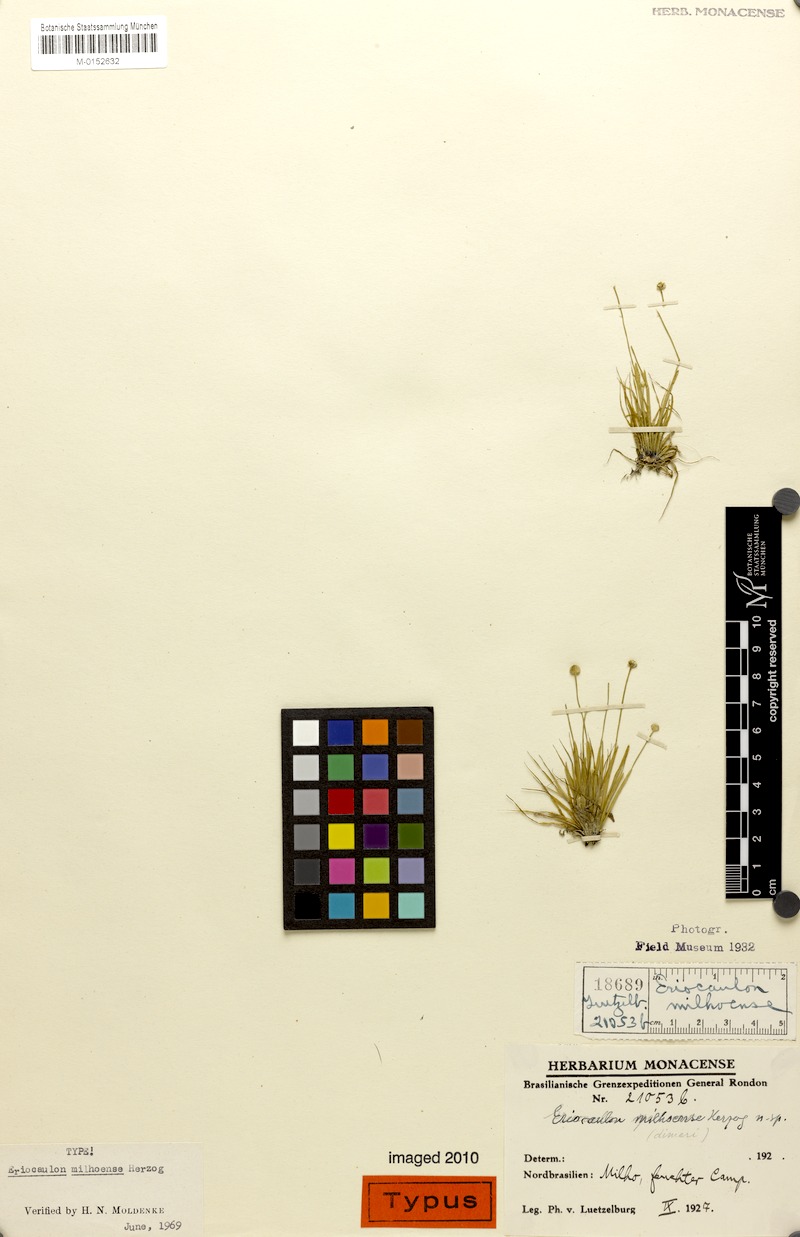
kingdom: Plantae
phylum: Tracheophyta
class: Liliopsida
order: Poales
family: Eriocaulaceae
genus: Eriocaulon
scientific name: Eriocaulon milhoense
